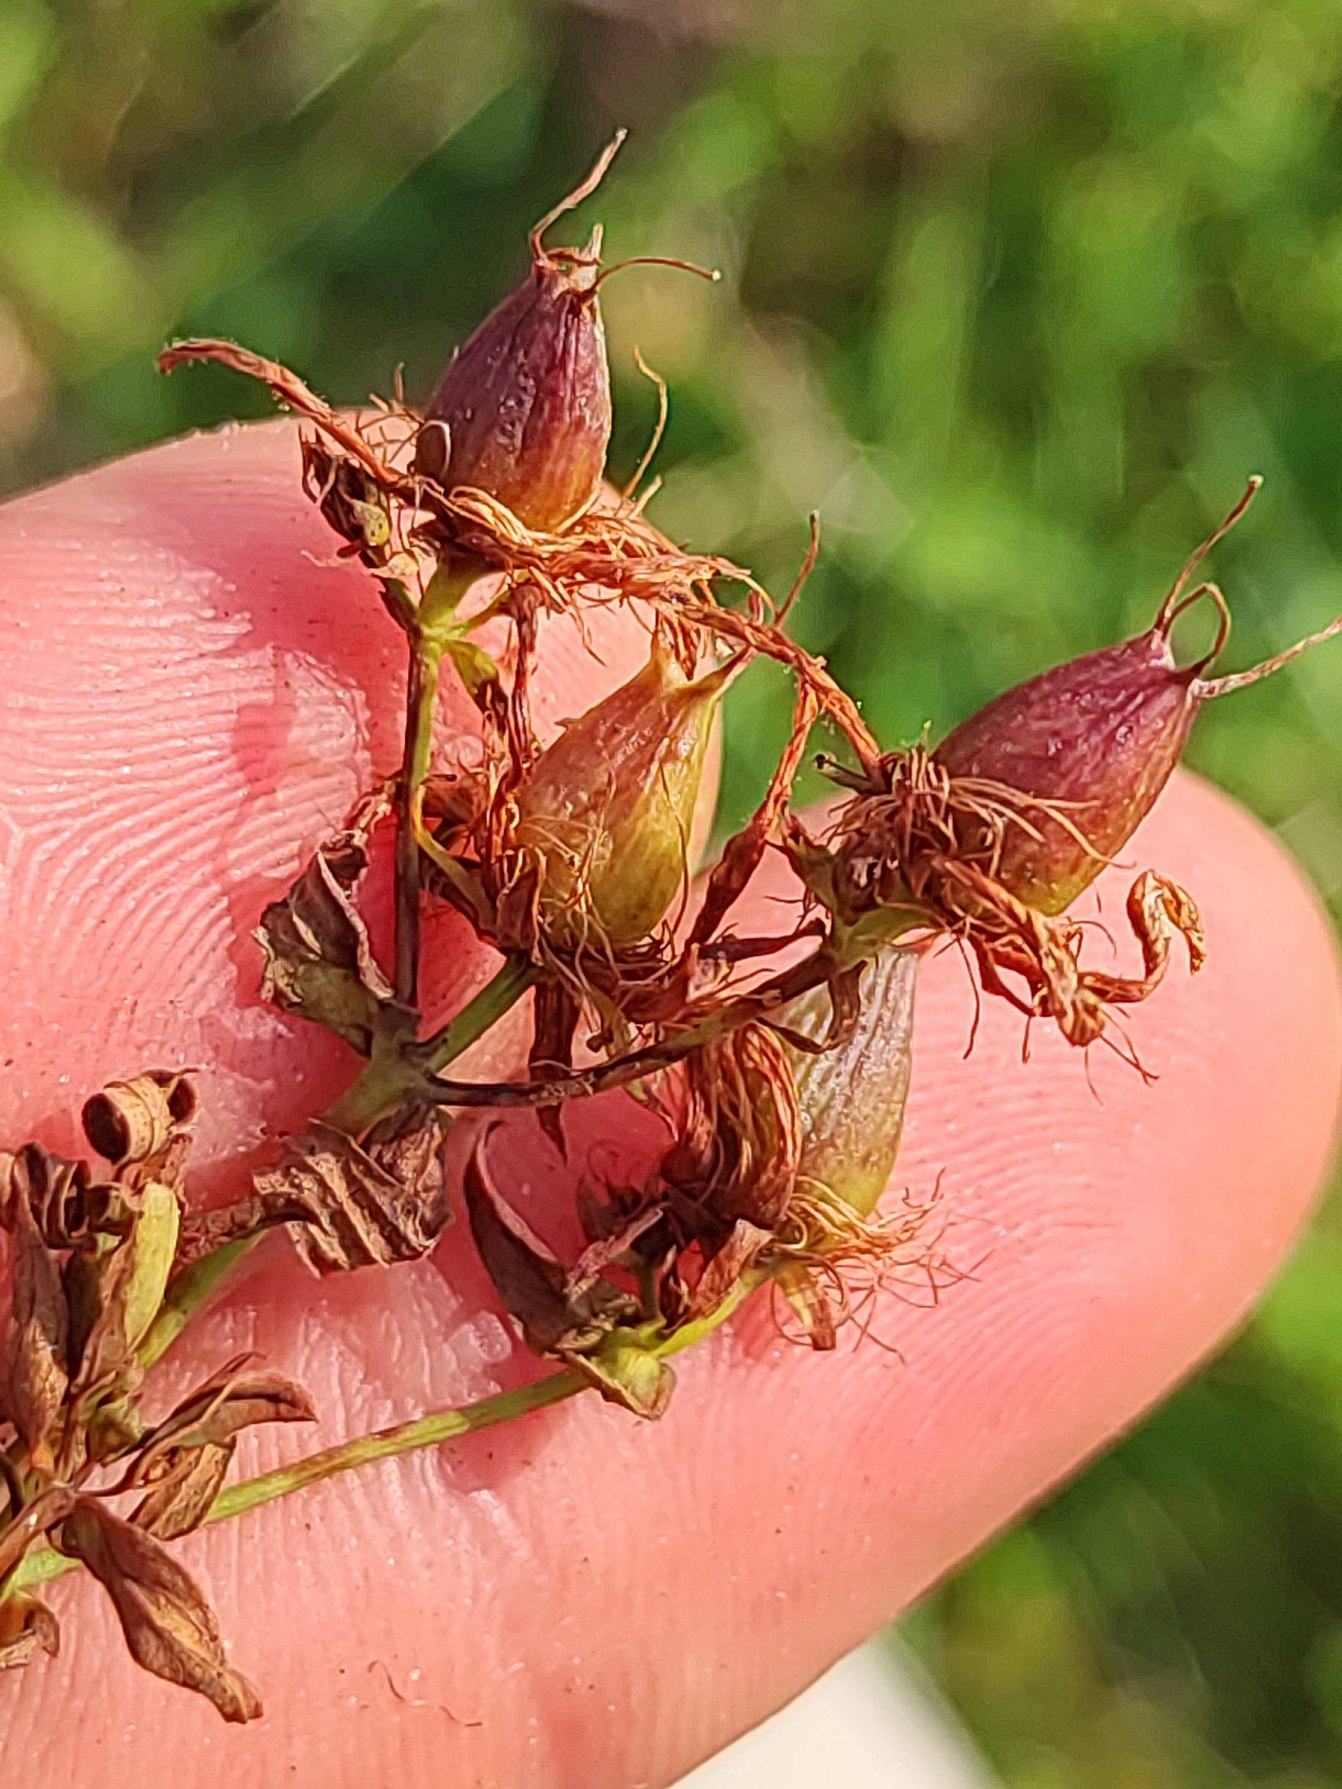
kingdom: Plantae
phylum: Tracheophyta
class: Magnoliopsida
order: Malpighiales
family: Hypericaceae
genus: Hypericum
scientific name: Hypericum perforatum
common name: Prikbladet perikon
